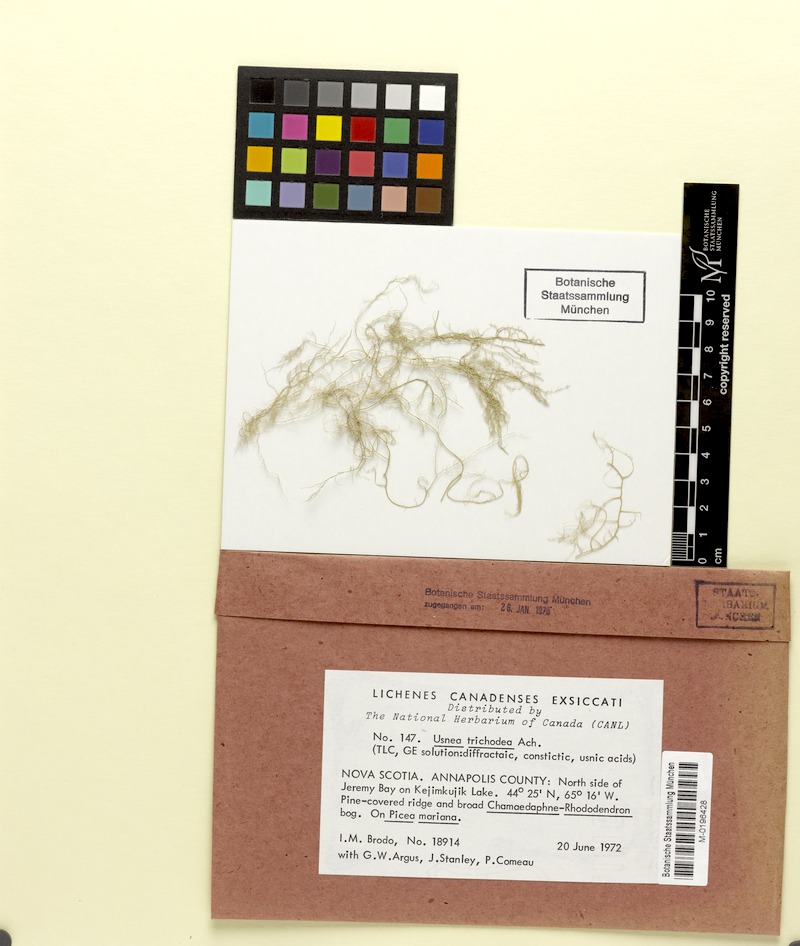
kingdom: Fungi
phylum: Ascomycota
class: Lecanoromycetes
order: Lecanorales
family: Parmeliaceae
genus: Usnea
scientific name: Usnea trichodea
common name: Bony beard lichen
